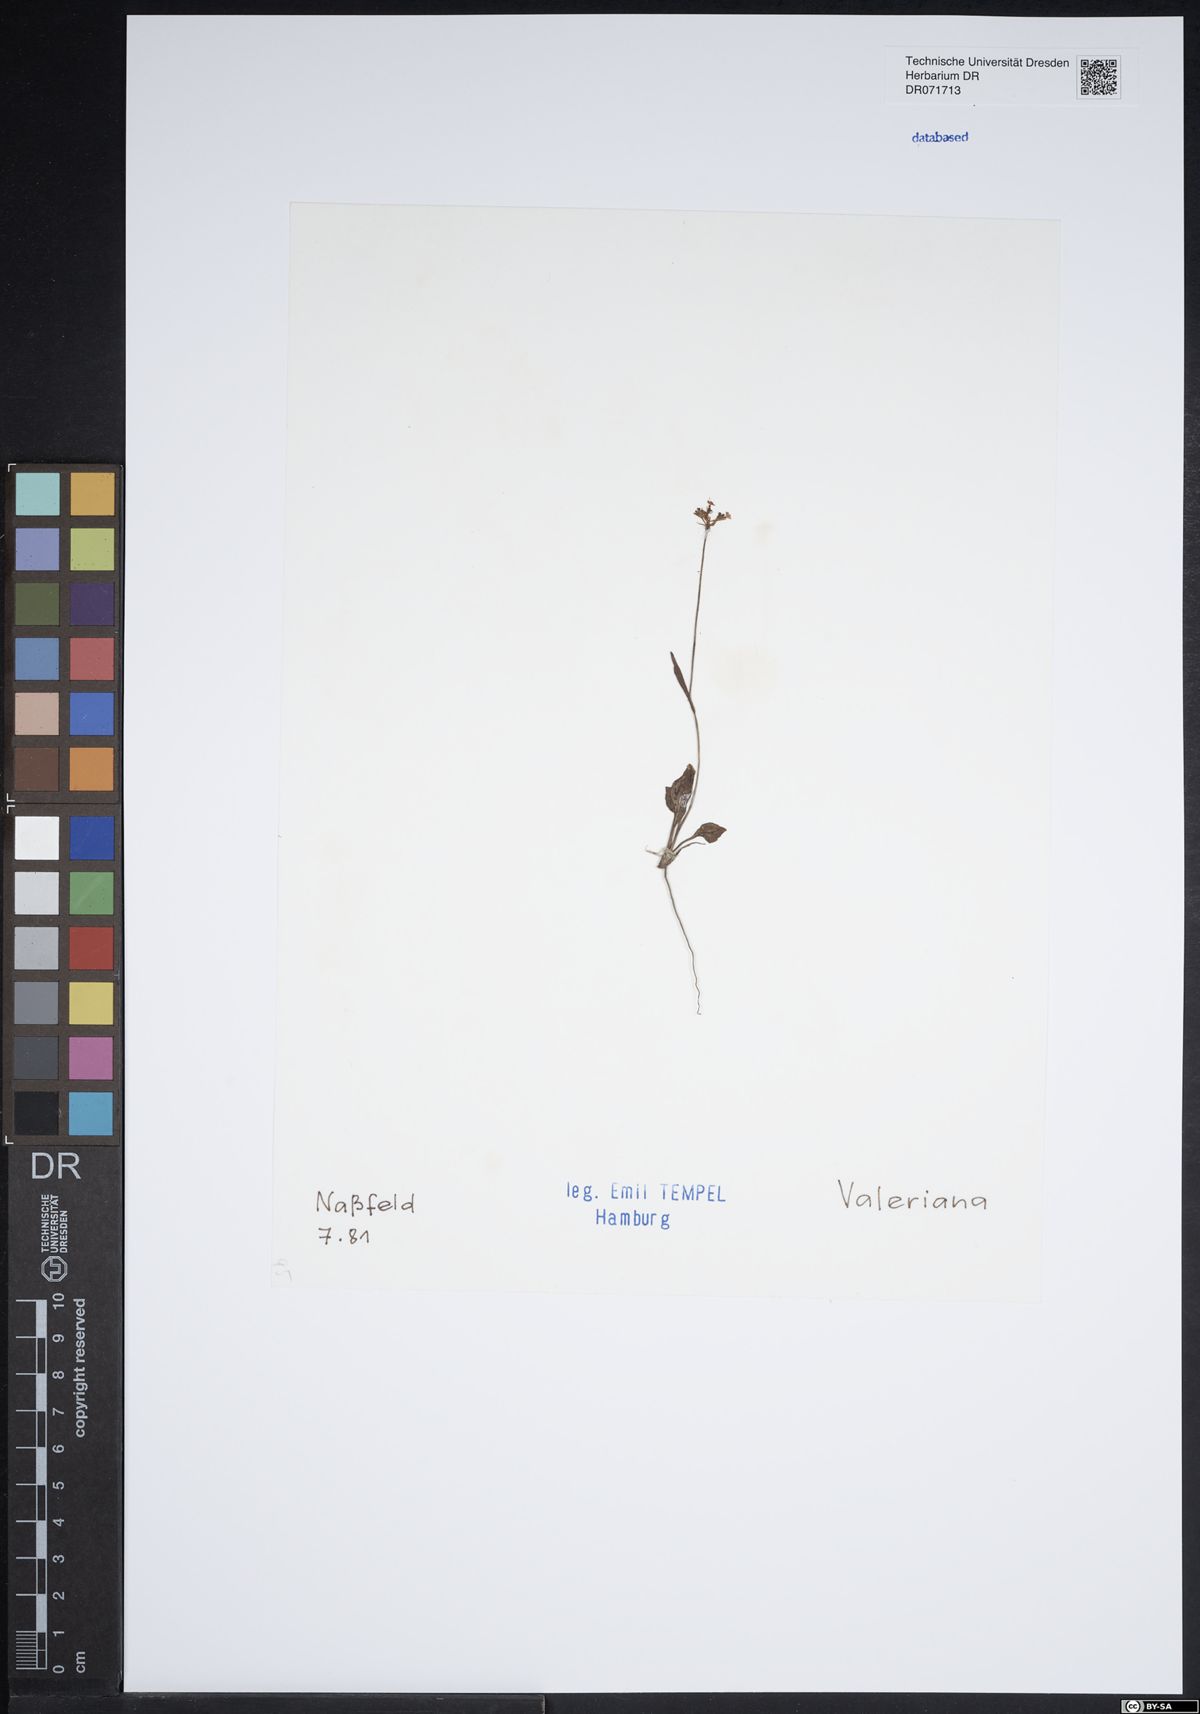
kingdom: Plantae
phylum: Tracheophyta
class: Magnoliopsida
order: Dipsacales
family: Caprifoliaceae
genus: Valeriana
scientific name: Valeriana
